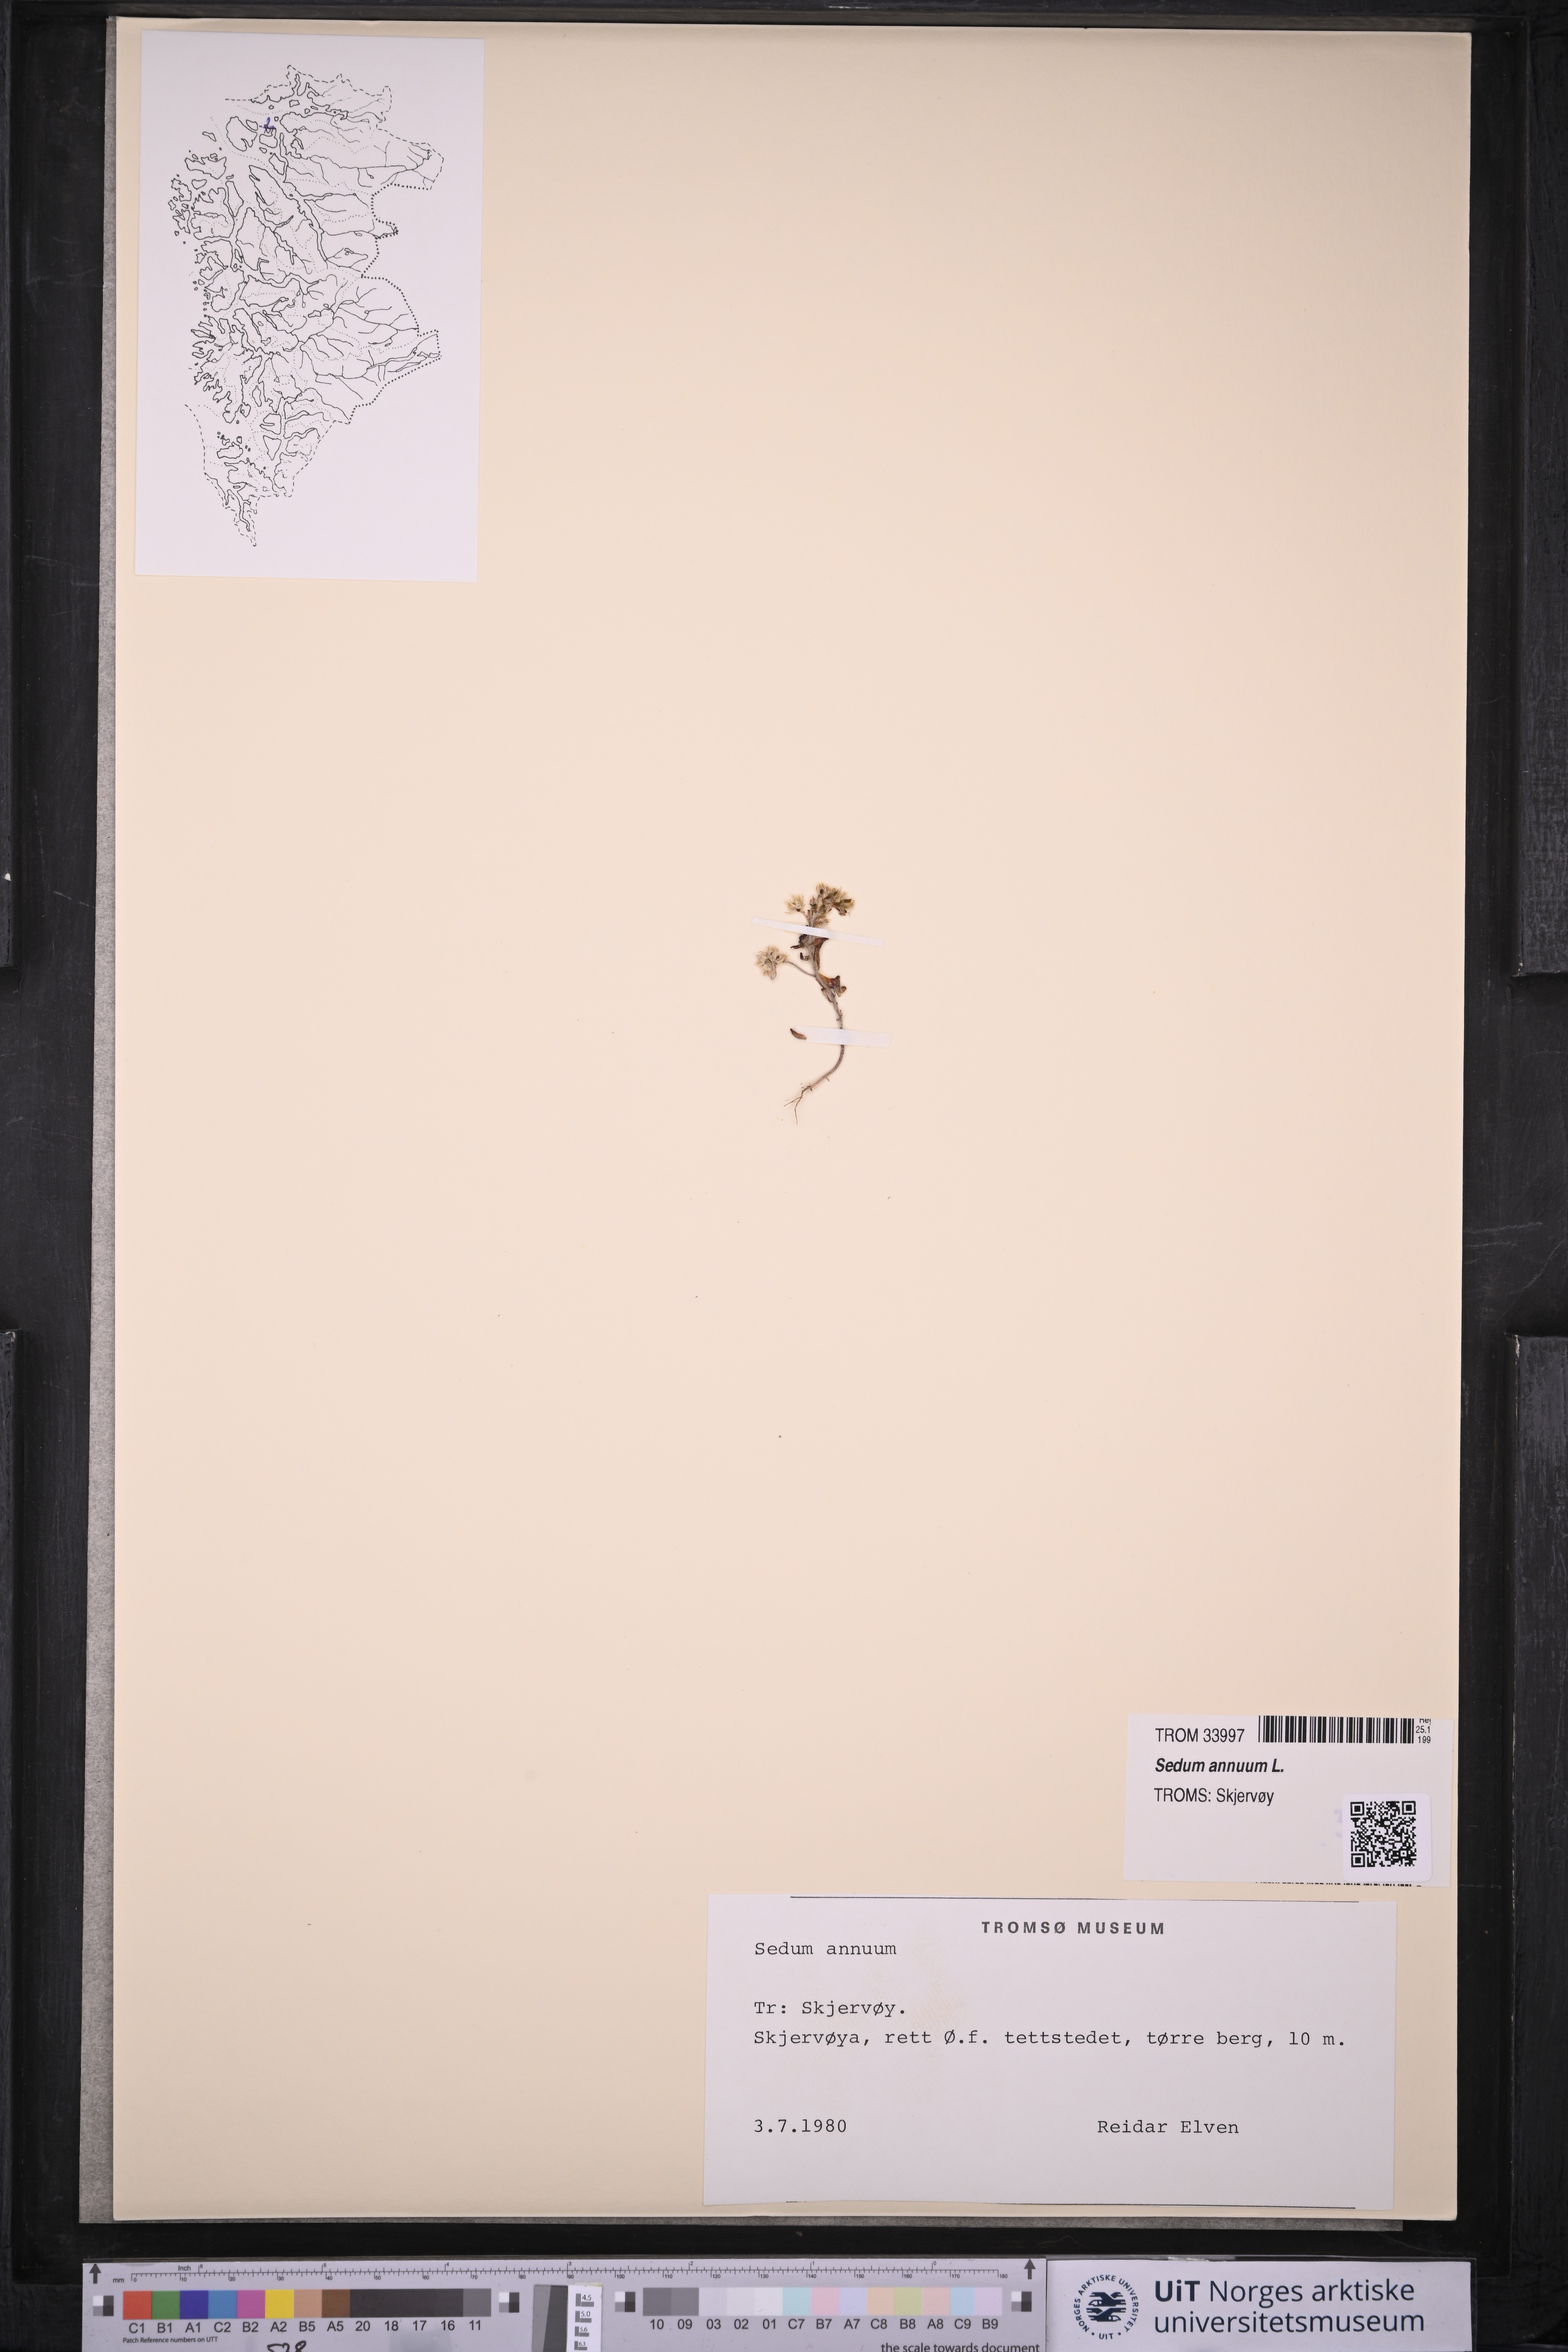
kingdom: Plantae
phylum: Tracheophyta
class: Magnoliopsida
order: Saxifragales
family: Crassulaceae
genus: Sedum
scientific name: Sedum annuum
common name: Annual stonecrop
